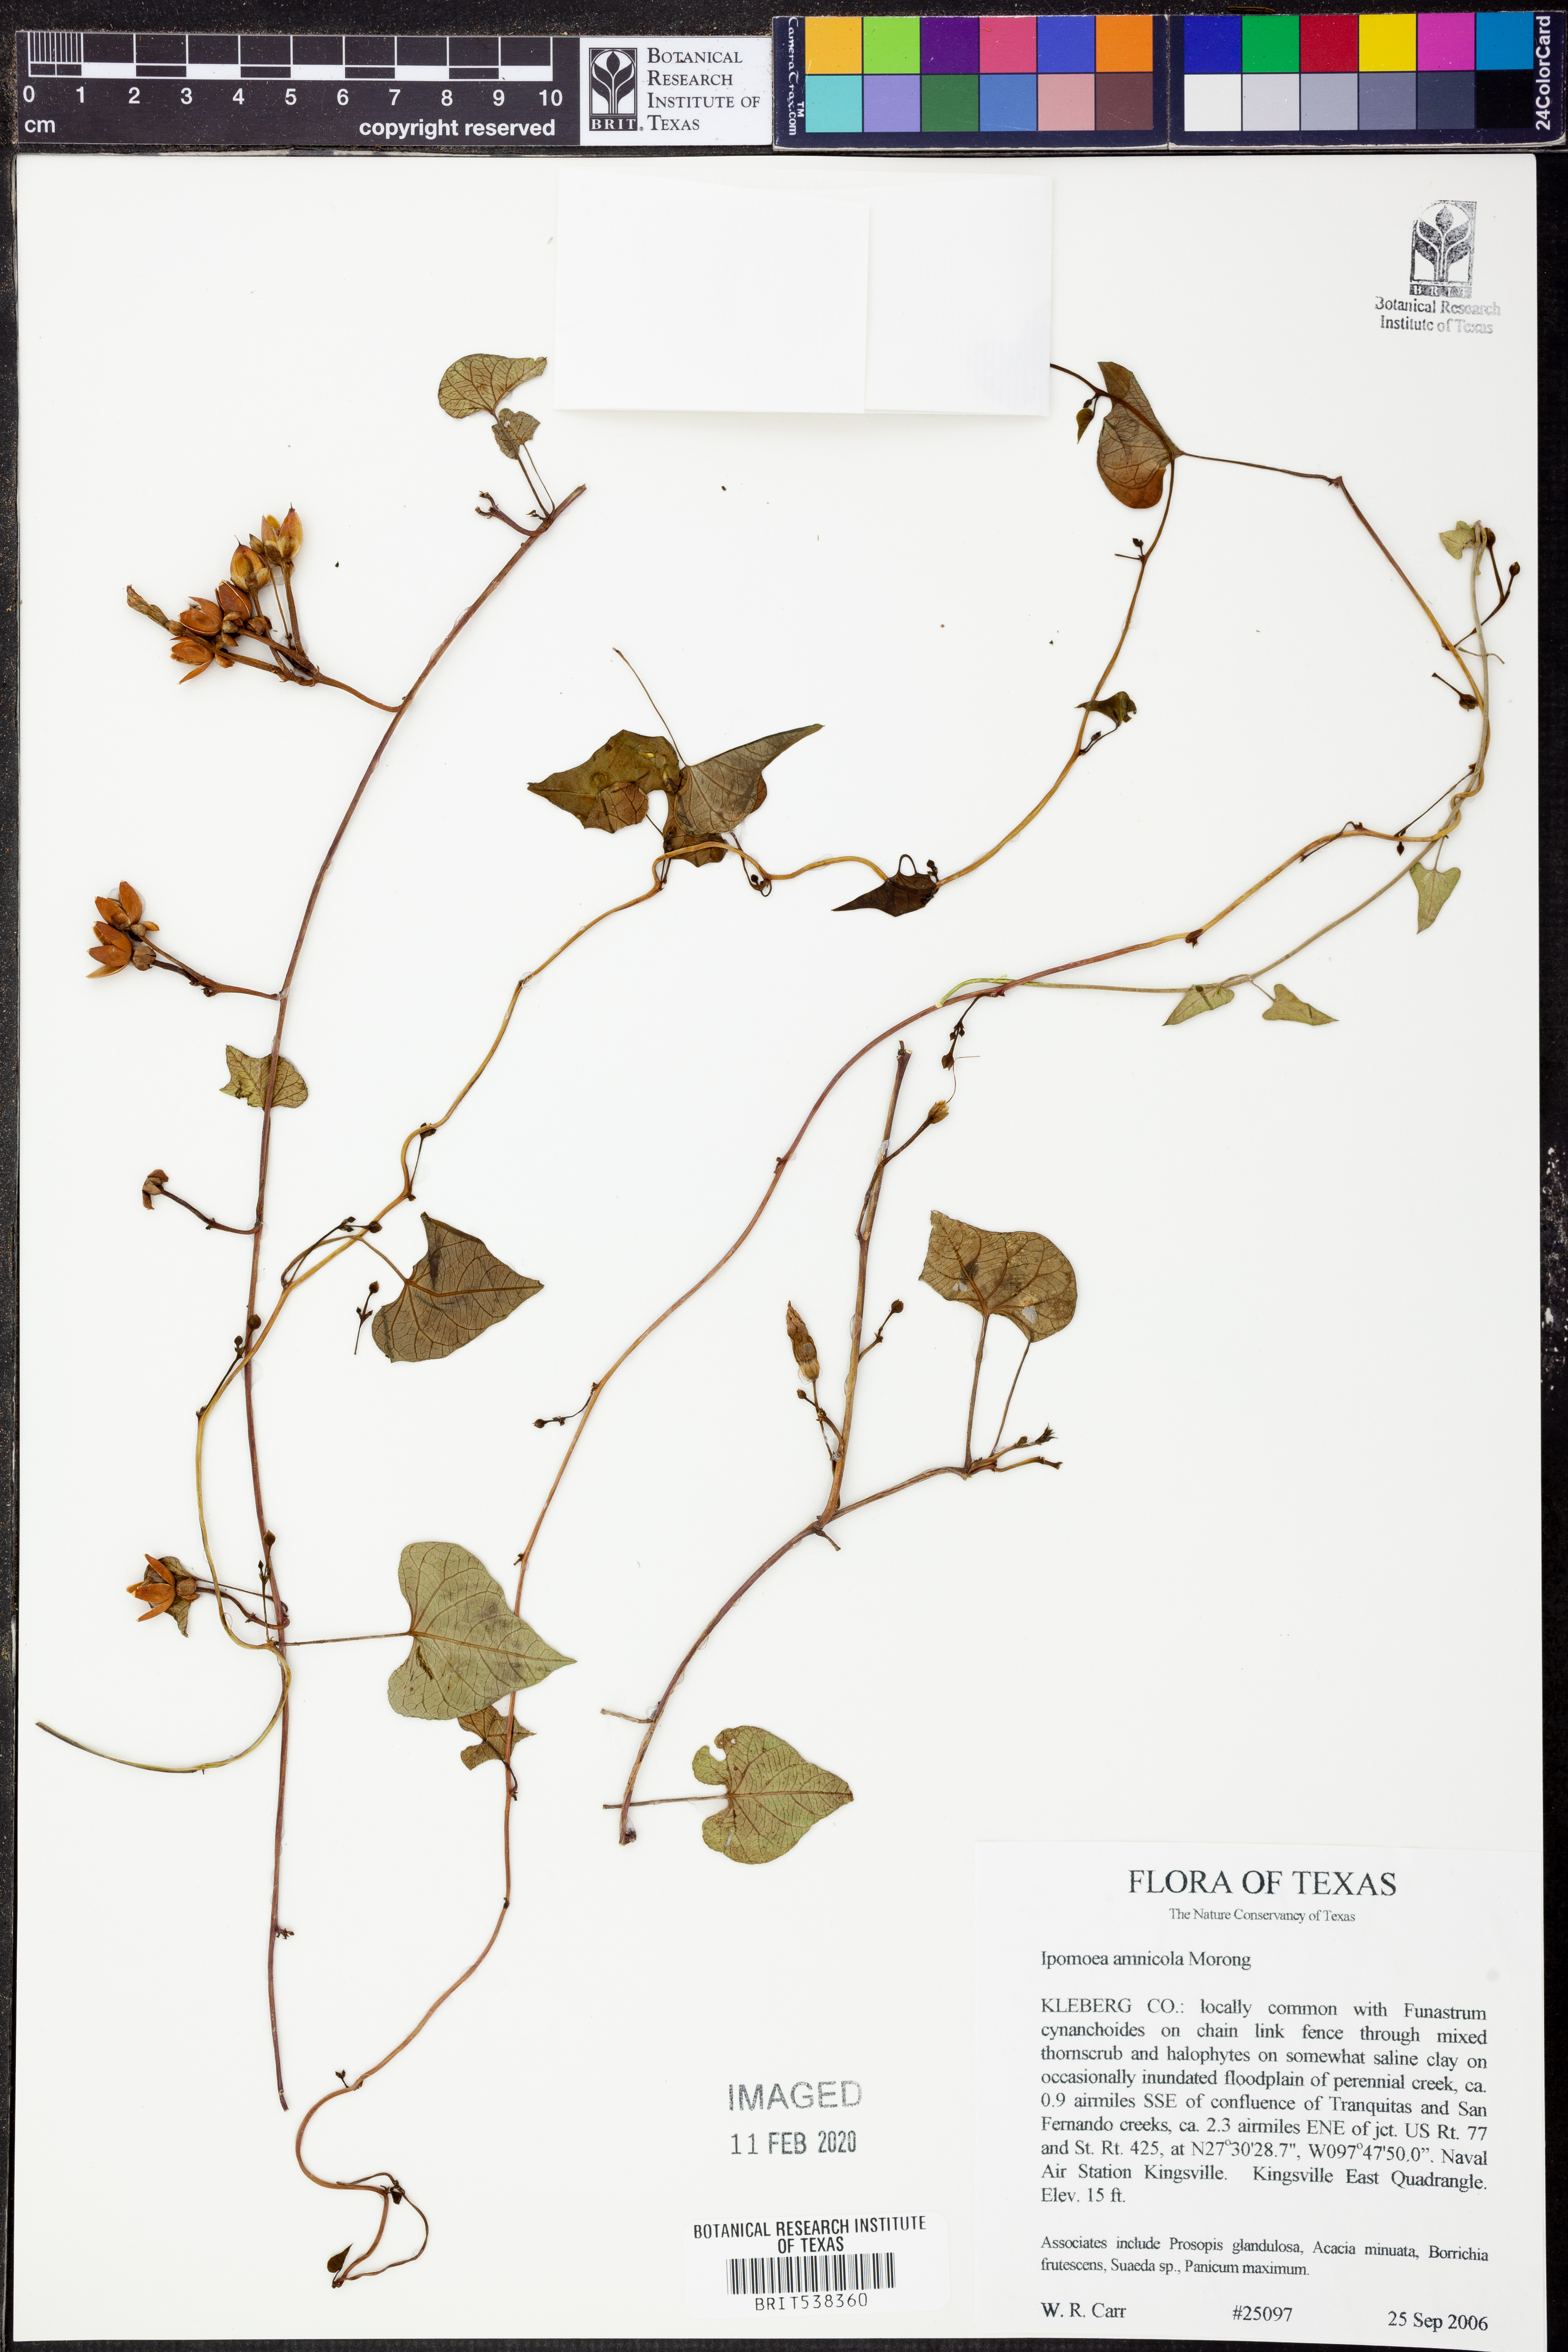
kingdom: Plantae
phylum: Tracheophyta
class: Magnoliopsida
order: Solanales
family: Convolvulaceae
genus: Ipomoea
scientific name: Ipomoea amnicola
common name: Redcenter morning-glory
